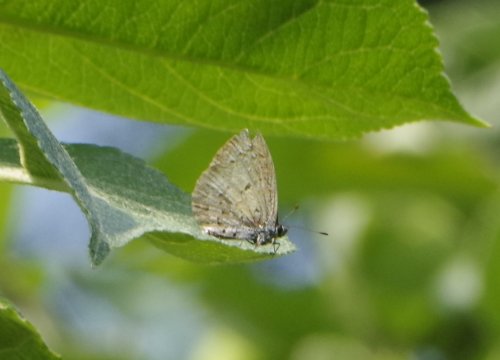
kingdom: Animalia
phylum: Arthropoda
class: Insecta
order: Lepidoptera
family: Lycaenidae
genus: Celastrina
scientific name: Celastrina lucia
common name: Northern Spring Azure
